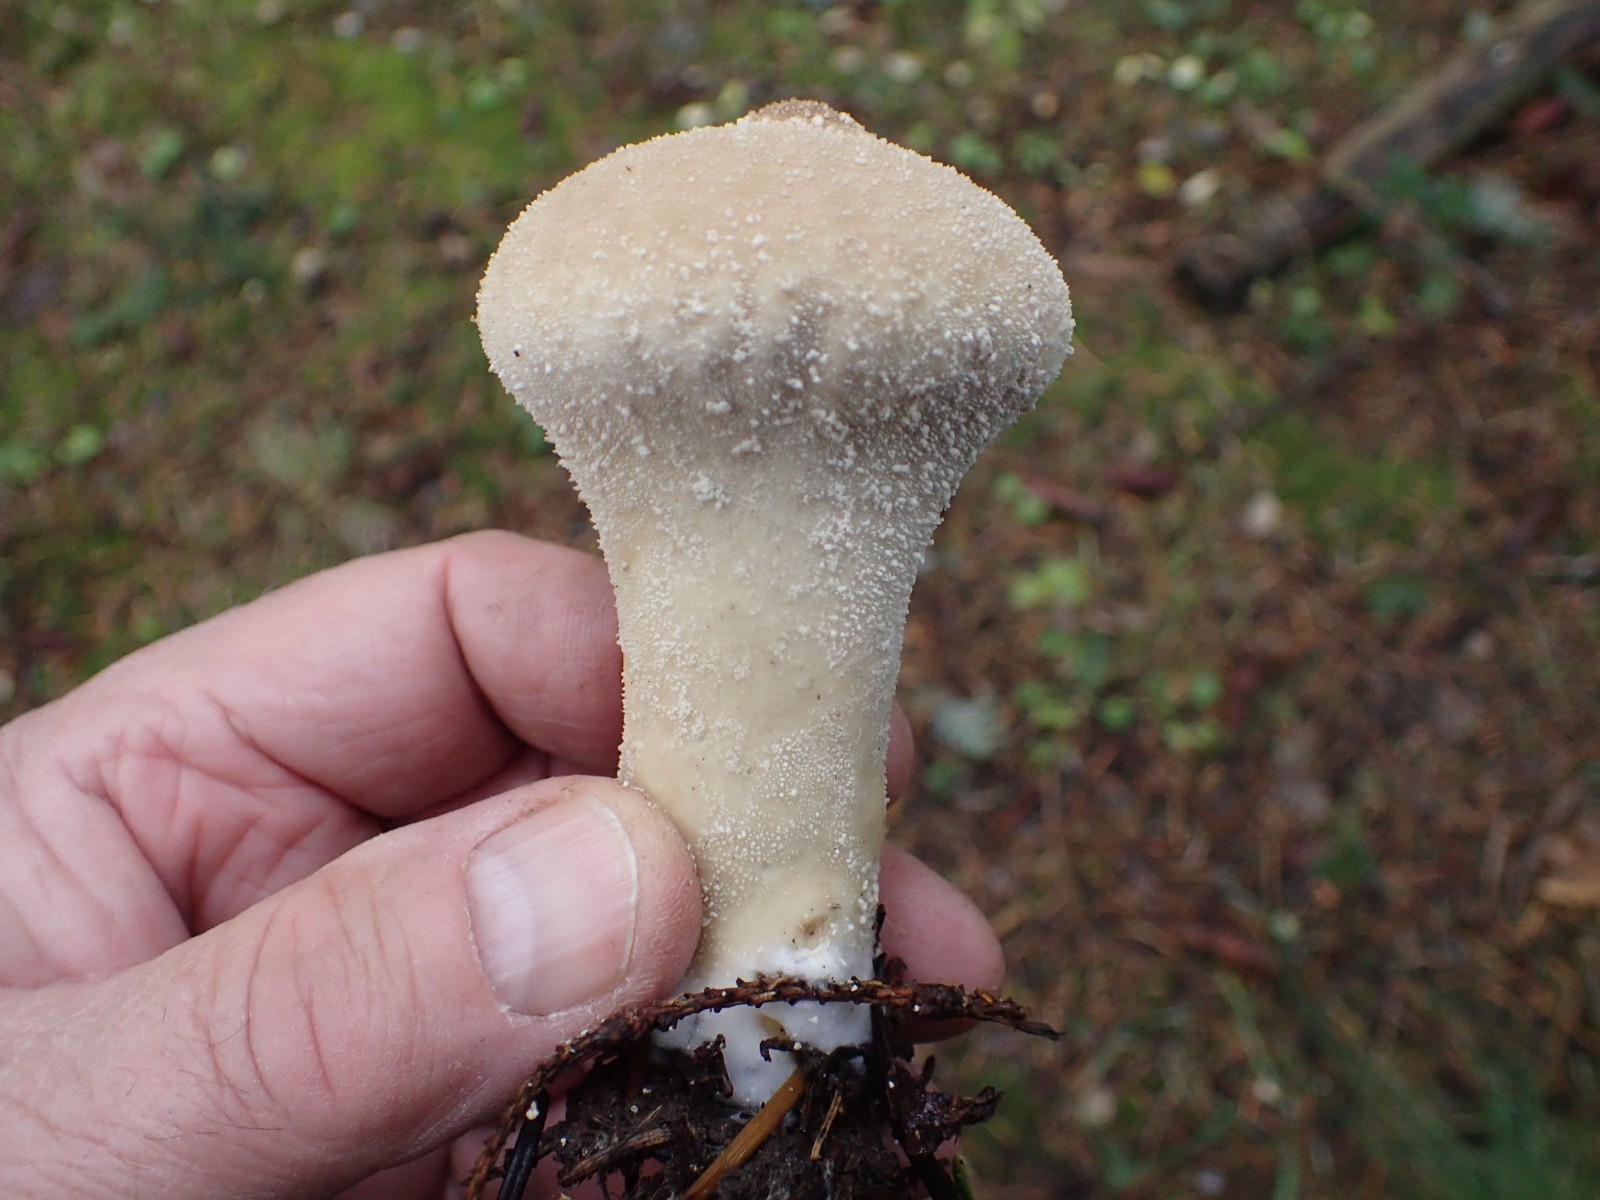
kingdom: Fungi
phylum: Basidiomycota
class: Agaricomycetes
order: Agaricales
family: Lycoperdaceae
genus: Lycoperdon
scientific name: Lycoperdon excipuliforme
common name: højstokket støvbold
